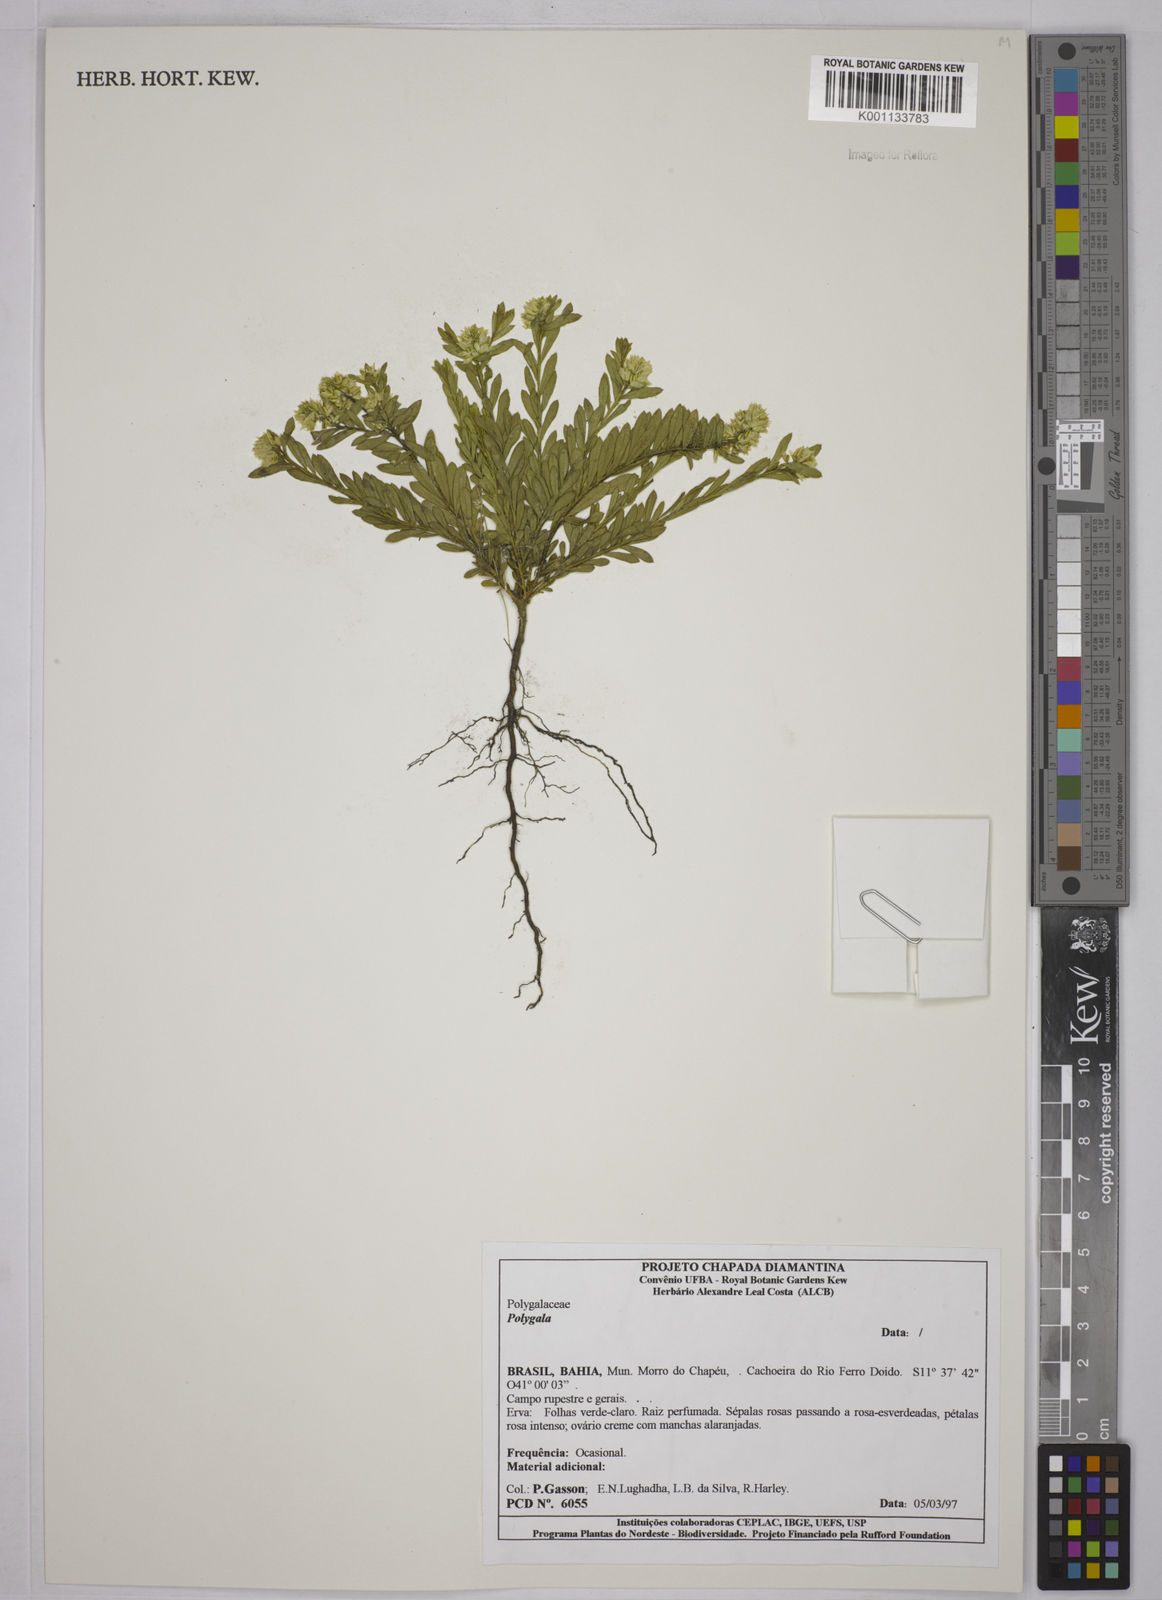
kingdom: Plantae
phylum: Tracheophyta
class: Magnoliopsida
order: Fabales
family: Polygalaceae
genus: Polygala
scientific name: Polygala
